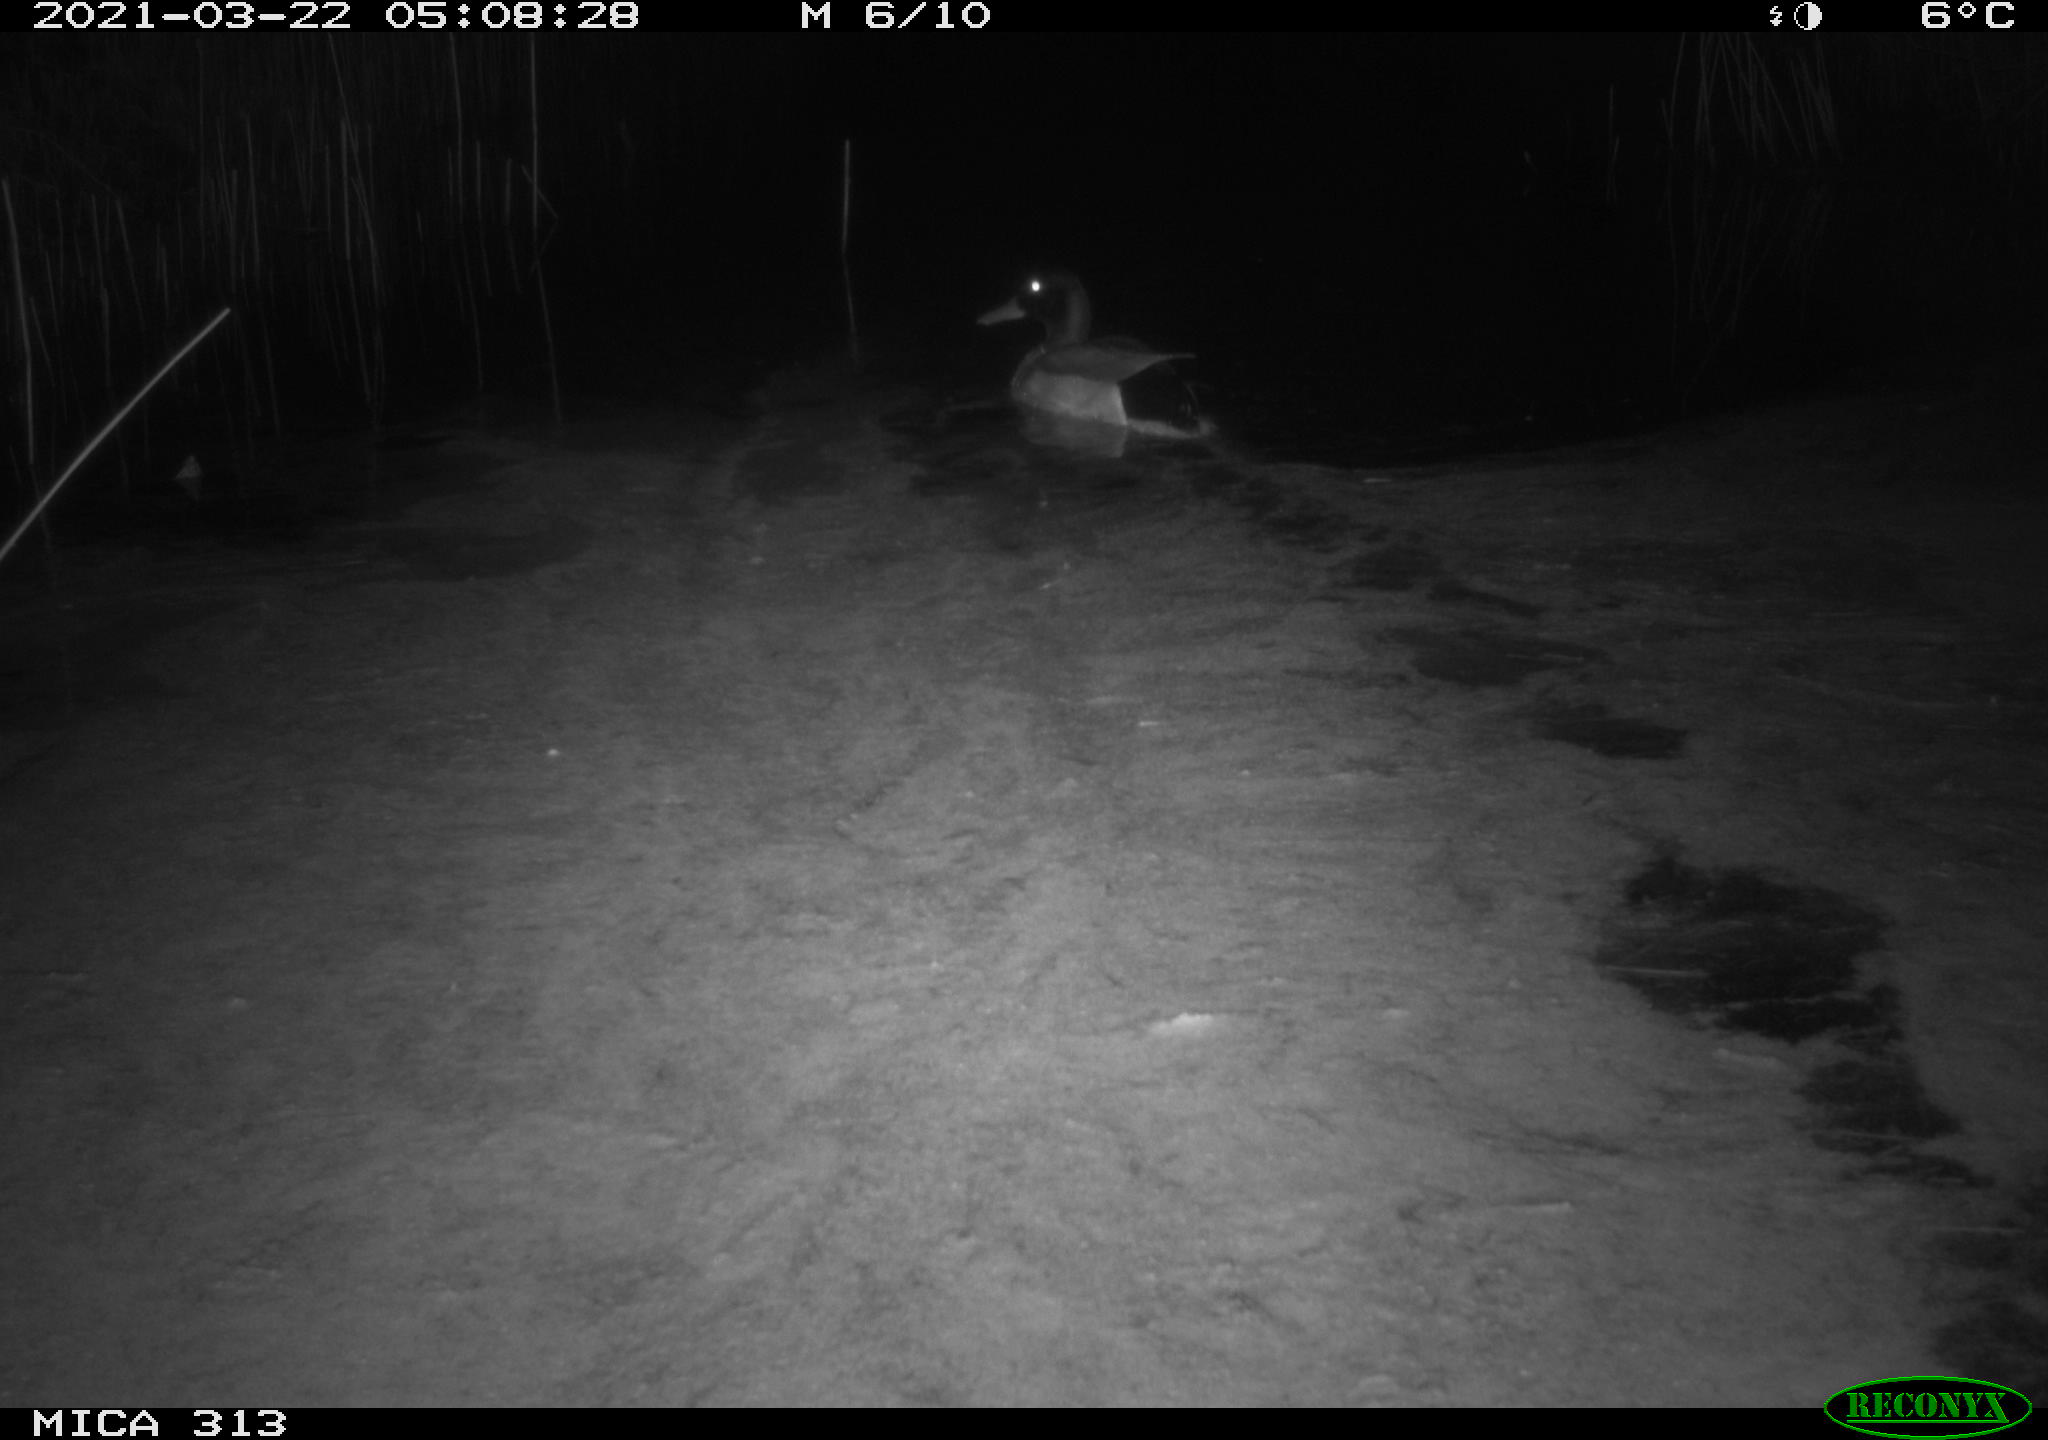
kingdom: Animalia
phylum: Chordata
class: Aves
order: Anseriformes
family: Anatidae
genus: Anas
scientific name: Anas platyrhynchos
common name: Mallard
